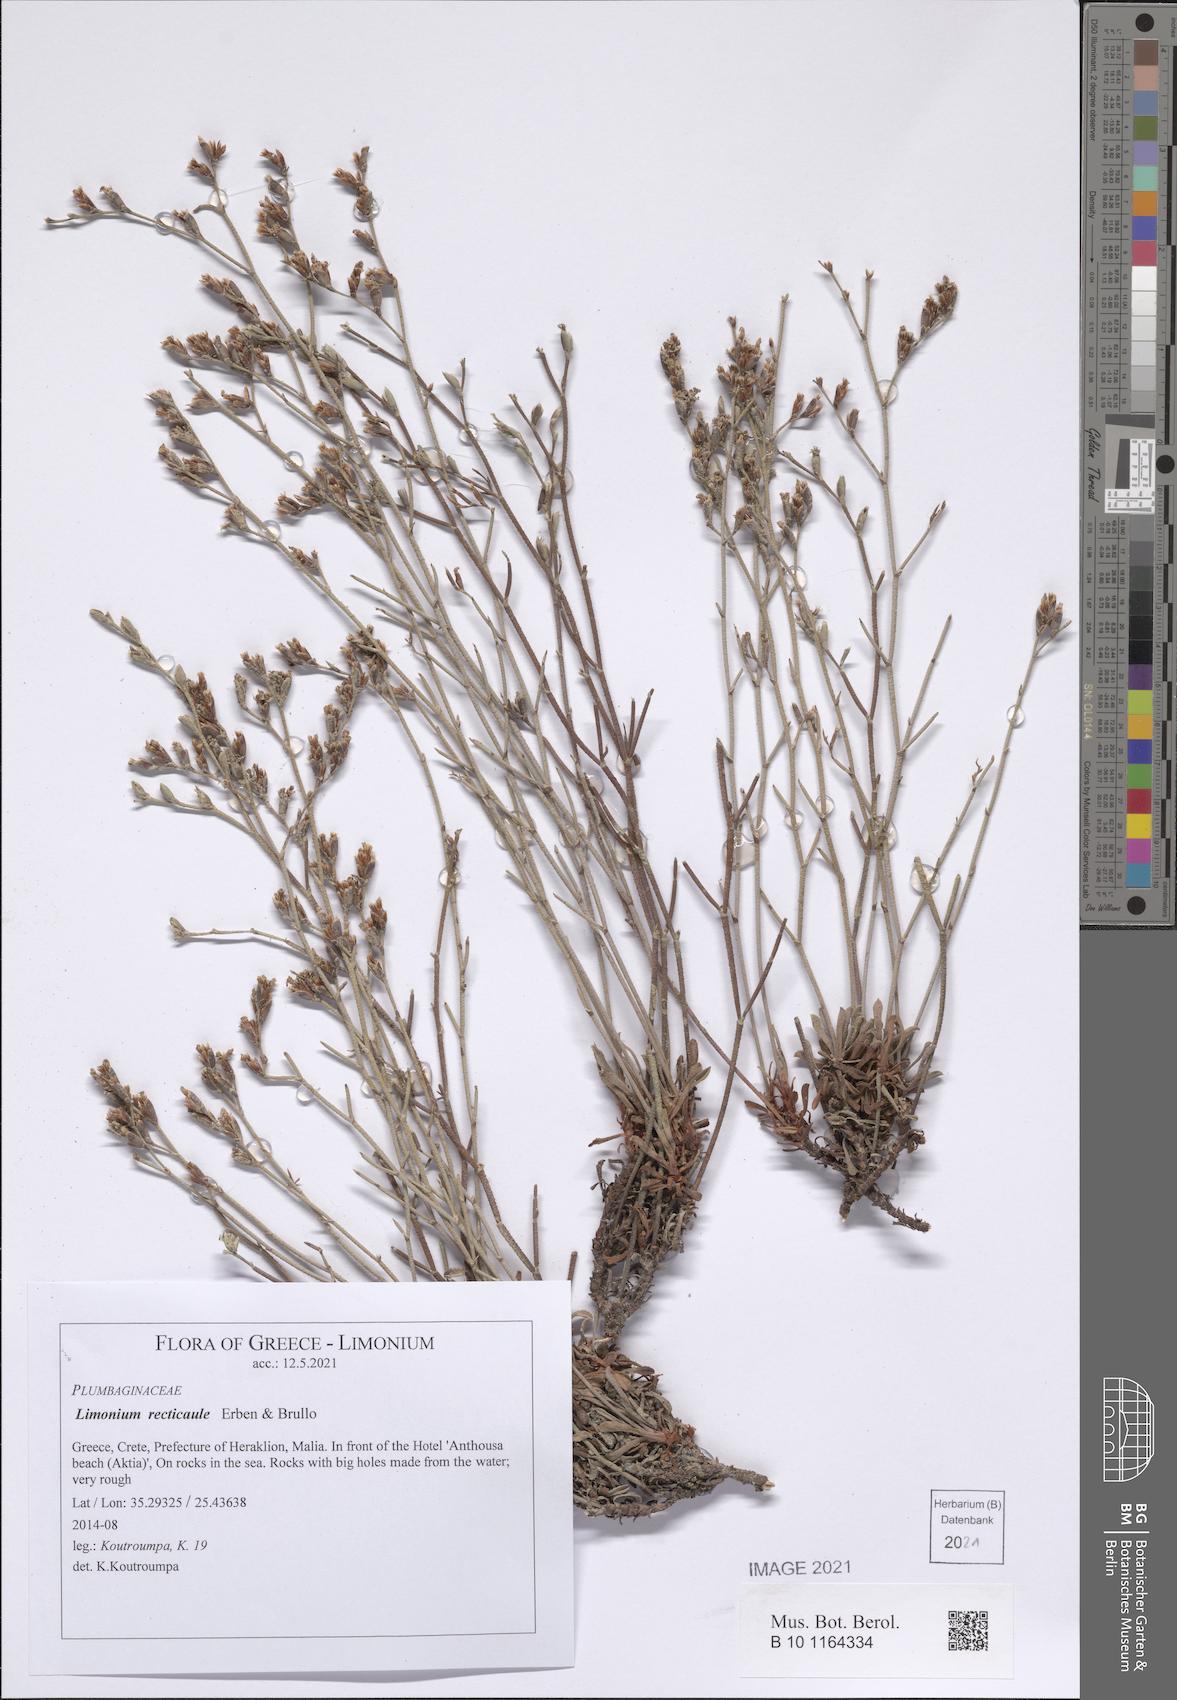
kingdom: Plantae
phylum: Tracheophyta
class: Magnoliopsida
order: Caryophyllales
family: Plumbaginaceae
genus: Limonium
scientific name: Limonium recticaule
